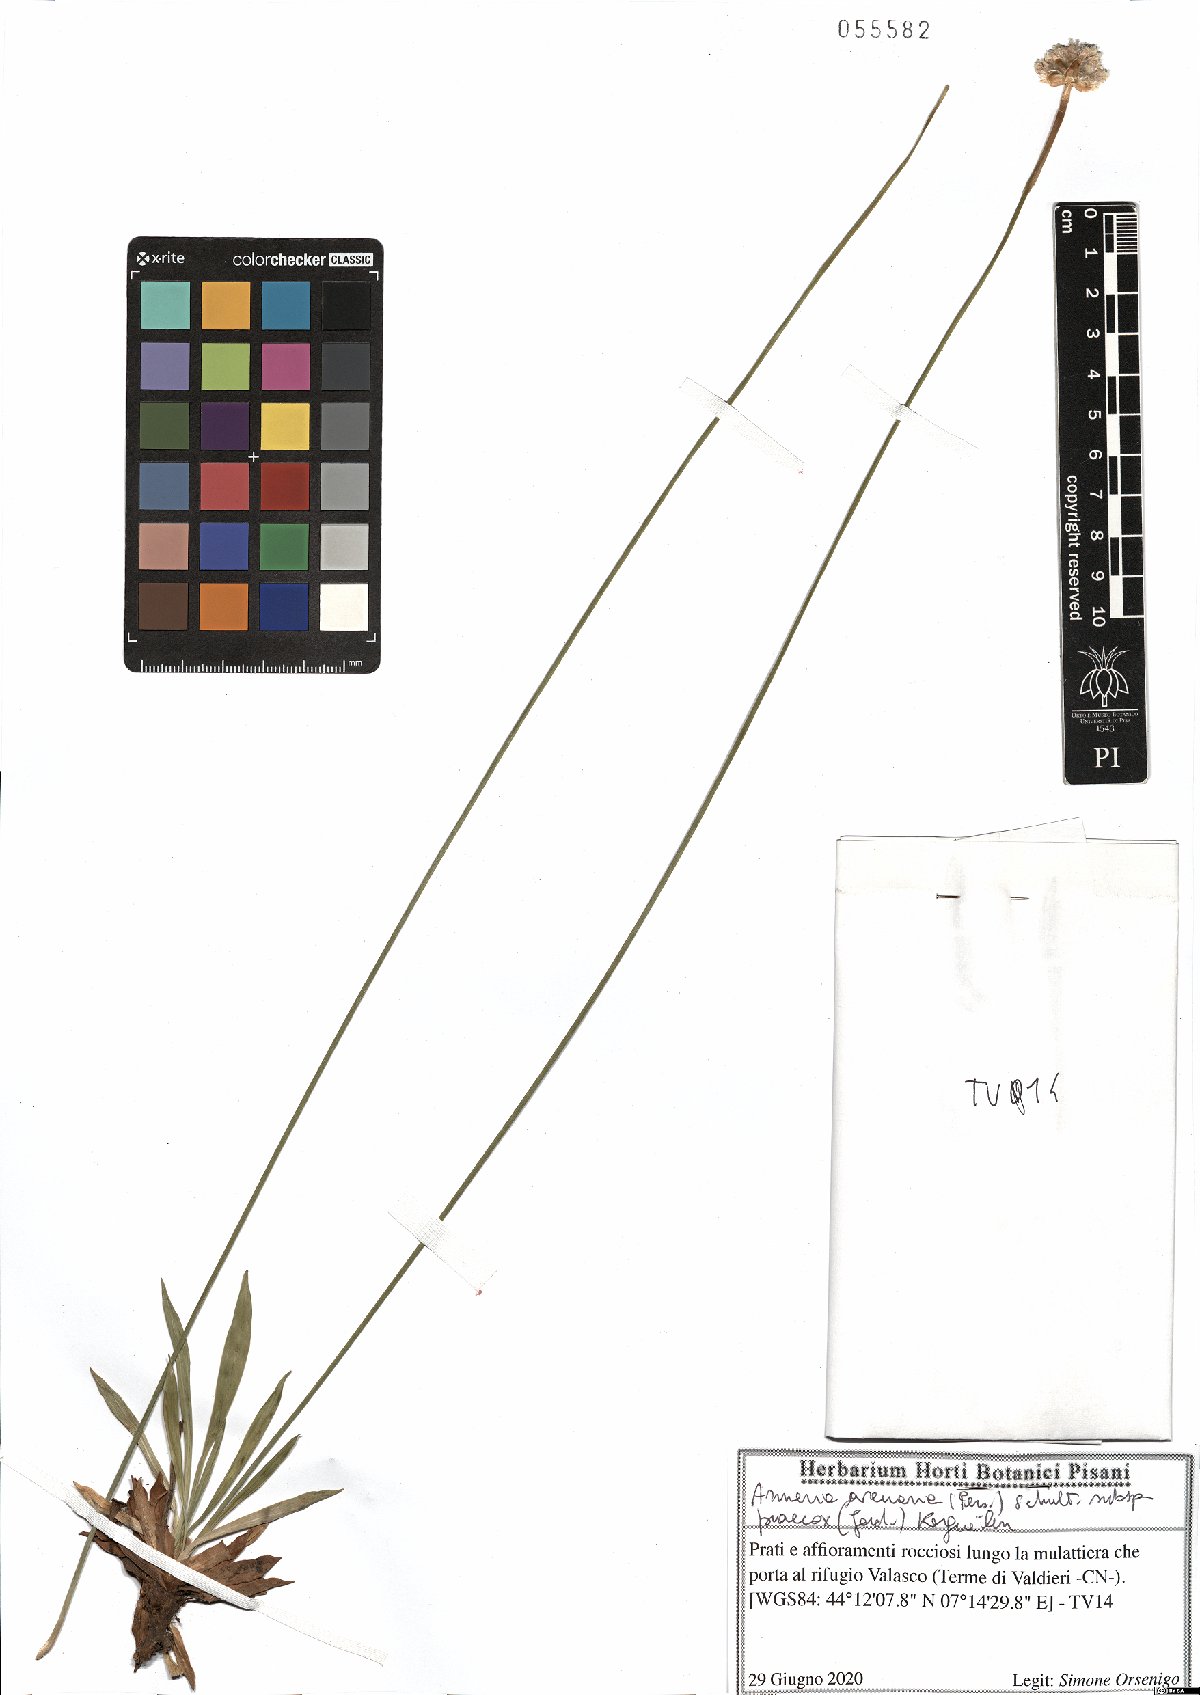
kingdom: Plantae
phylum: Tracheophyta
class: Magnoliopsida
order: Caryophyllales
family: Plumbaginaceae
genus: Armeria
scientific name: Armeria arenaria
